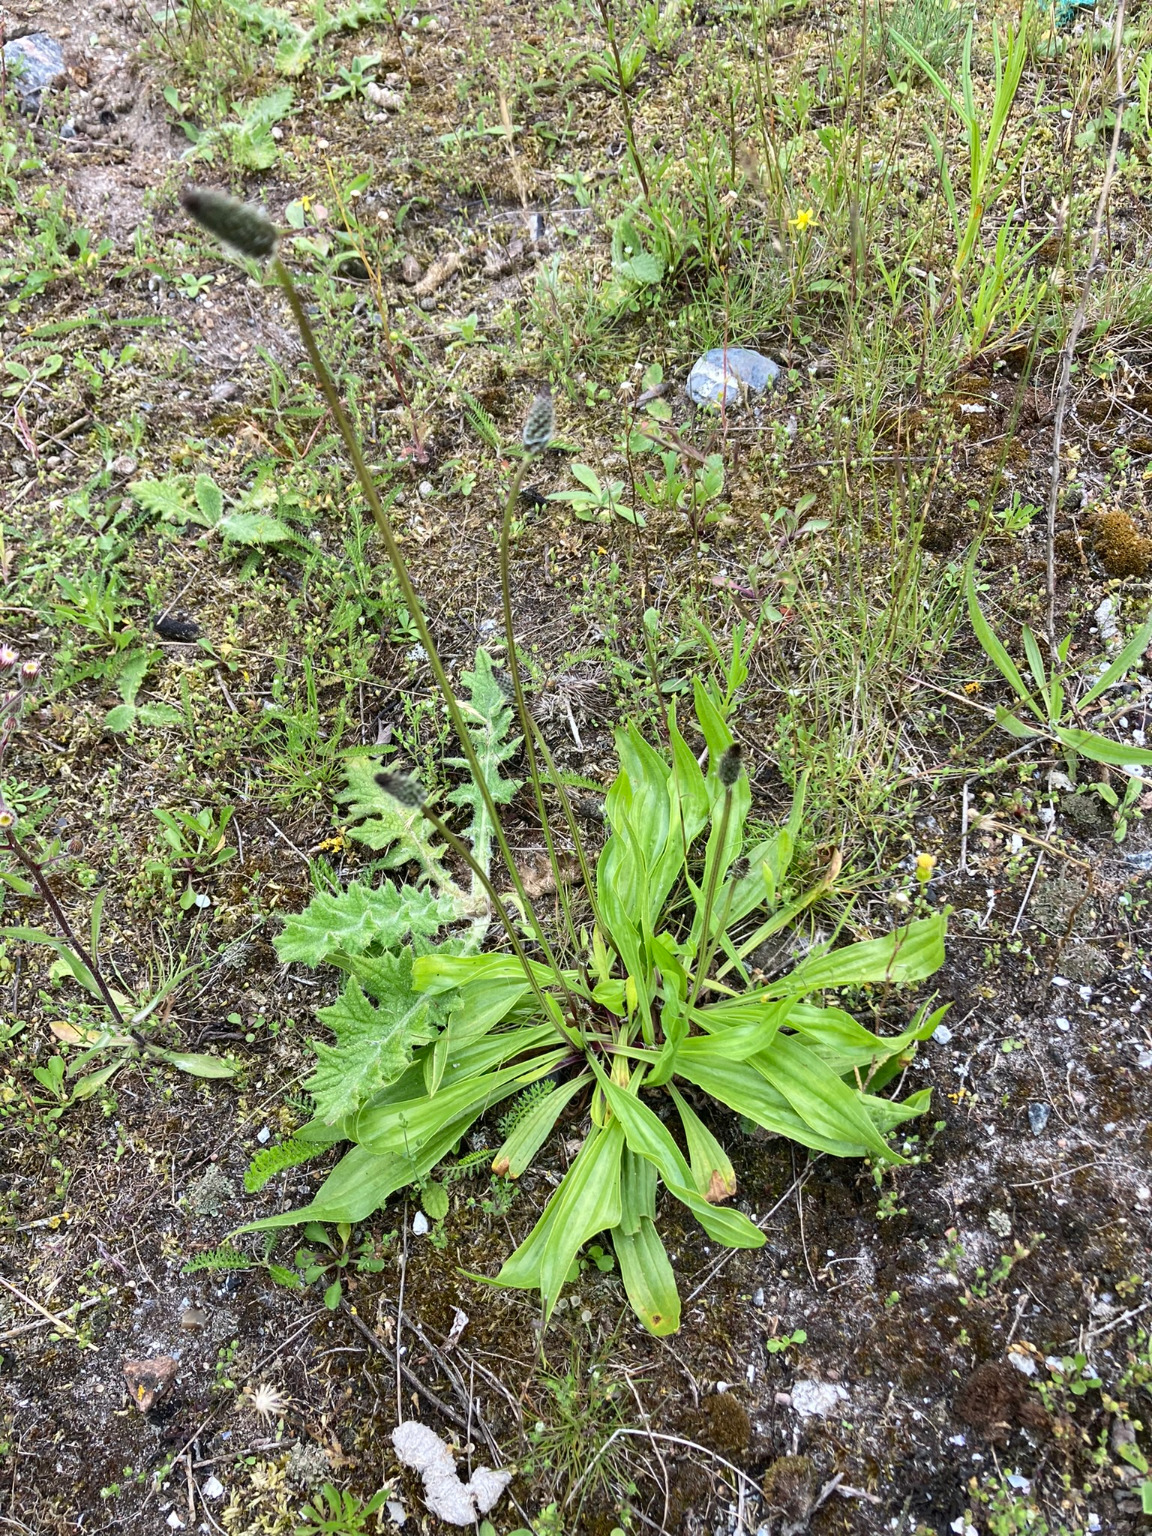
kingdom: Plantae
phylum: Tracheophyta
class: Magnoliopsida
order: Lamiales
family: Plantaginaceae
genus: Plantago
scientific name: Plantago lanceolata
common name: Lancet-vejbred
